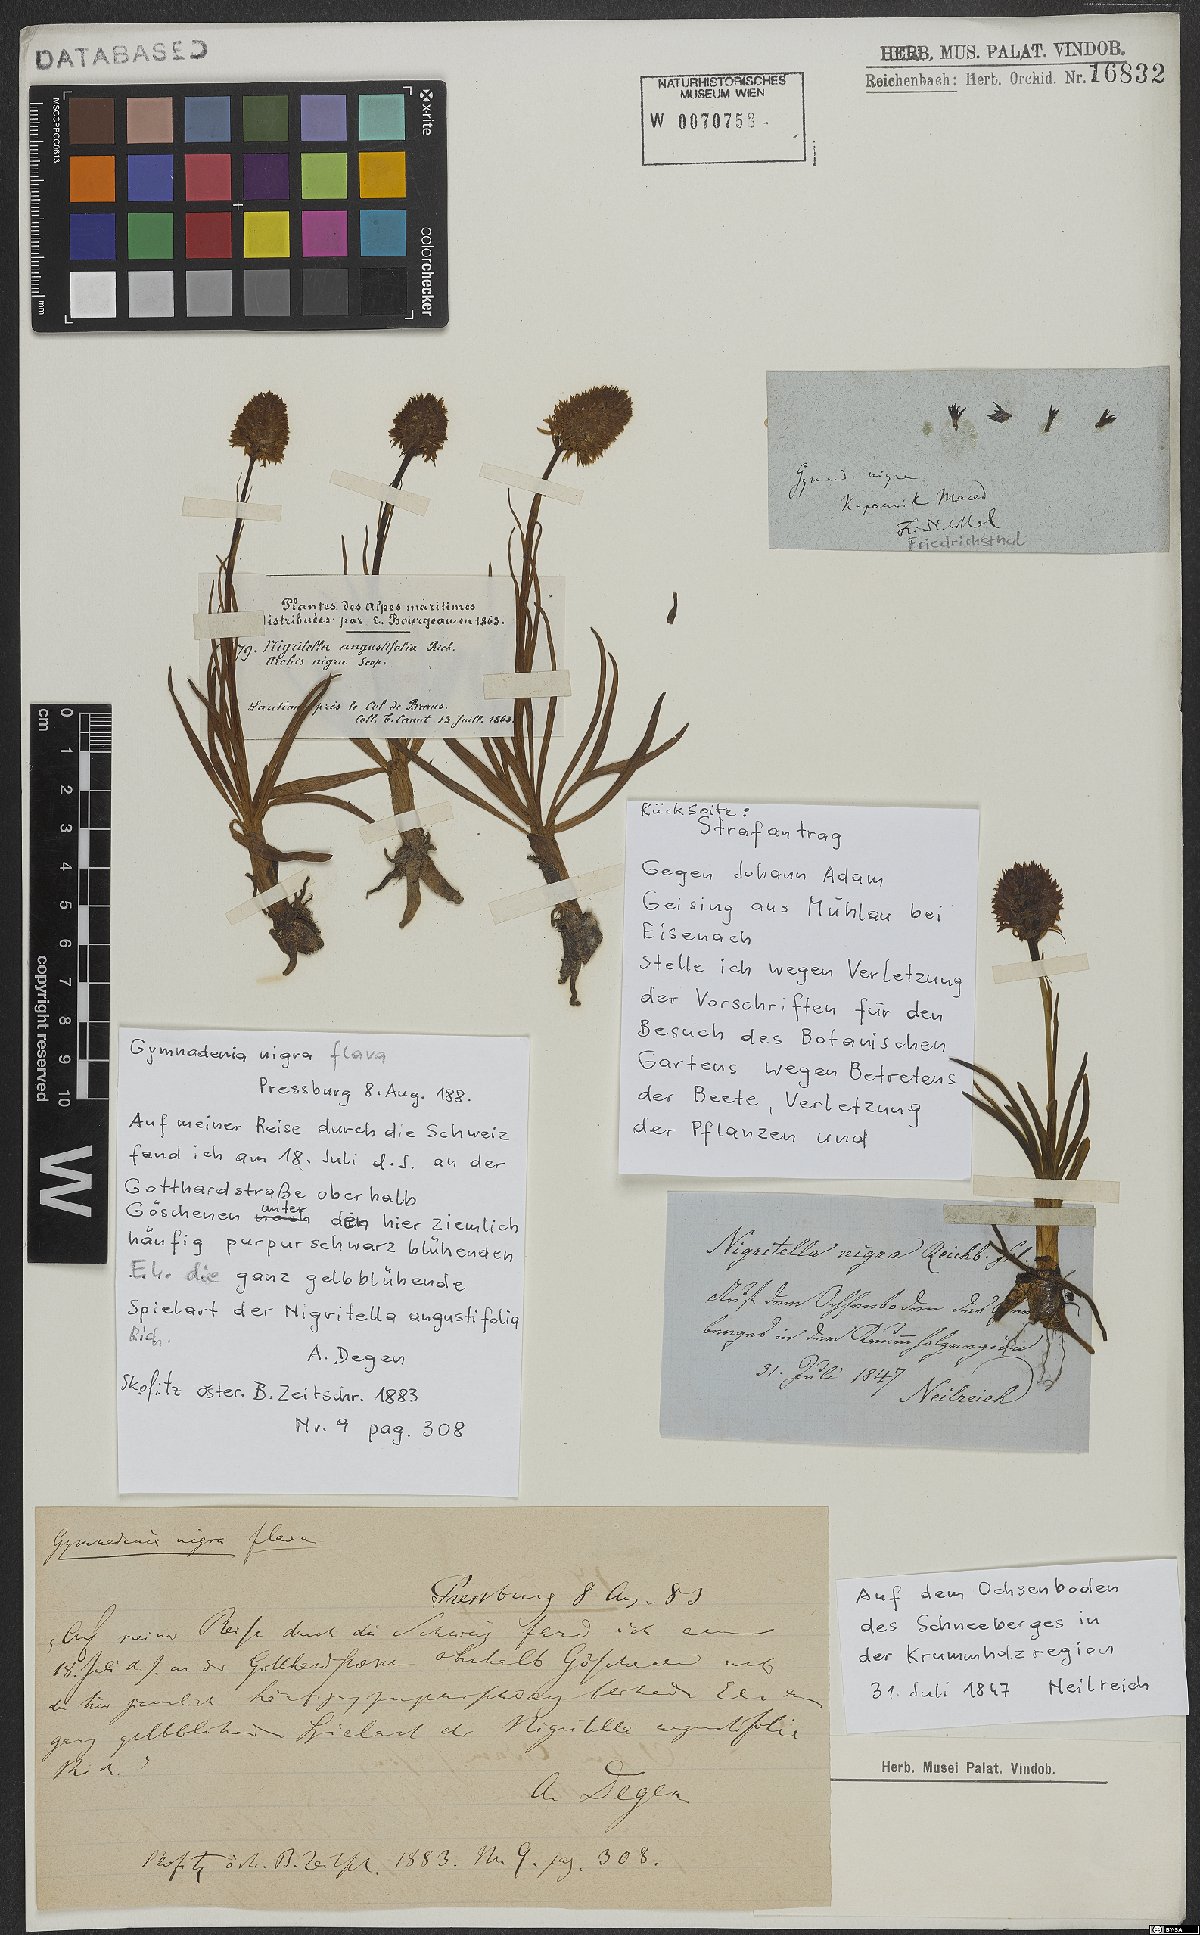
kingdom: Plantae
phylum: Tracheophyta
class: Liliopsida
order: Asparagales
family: Orchidaceae
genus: Gymnadenia
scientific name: Gymnadenia nigra
